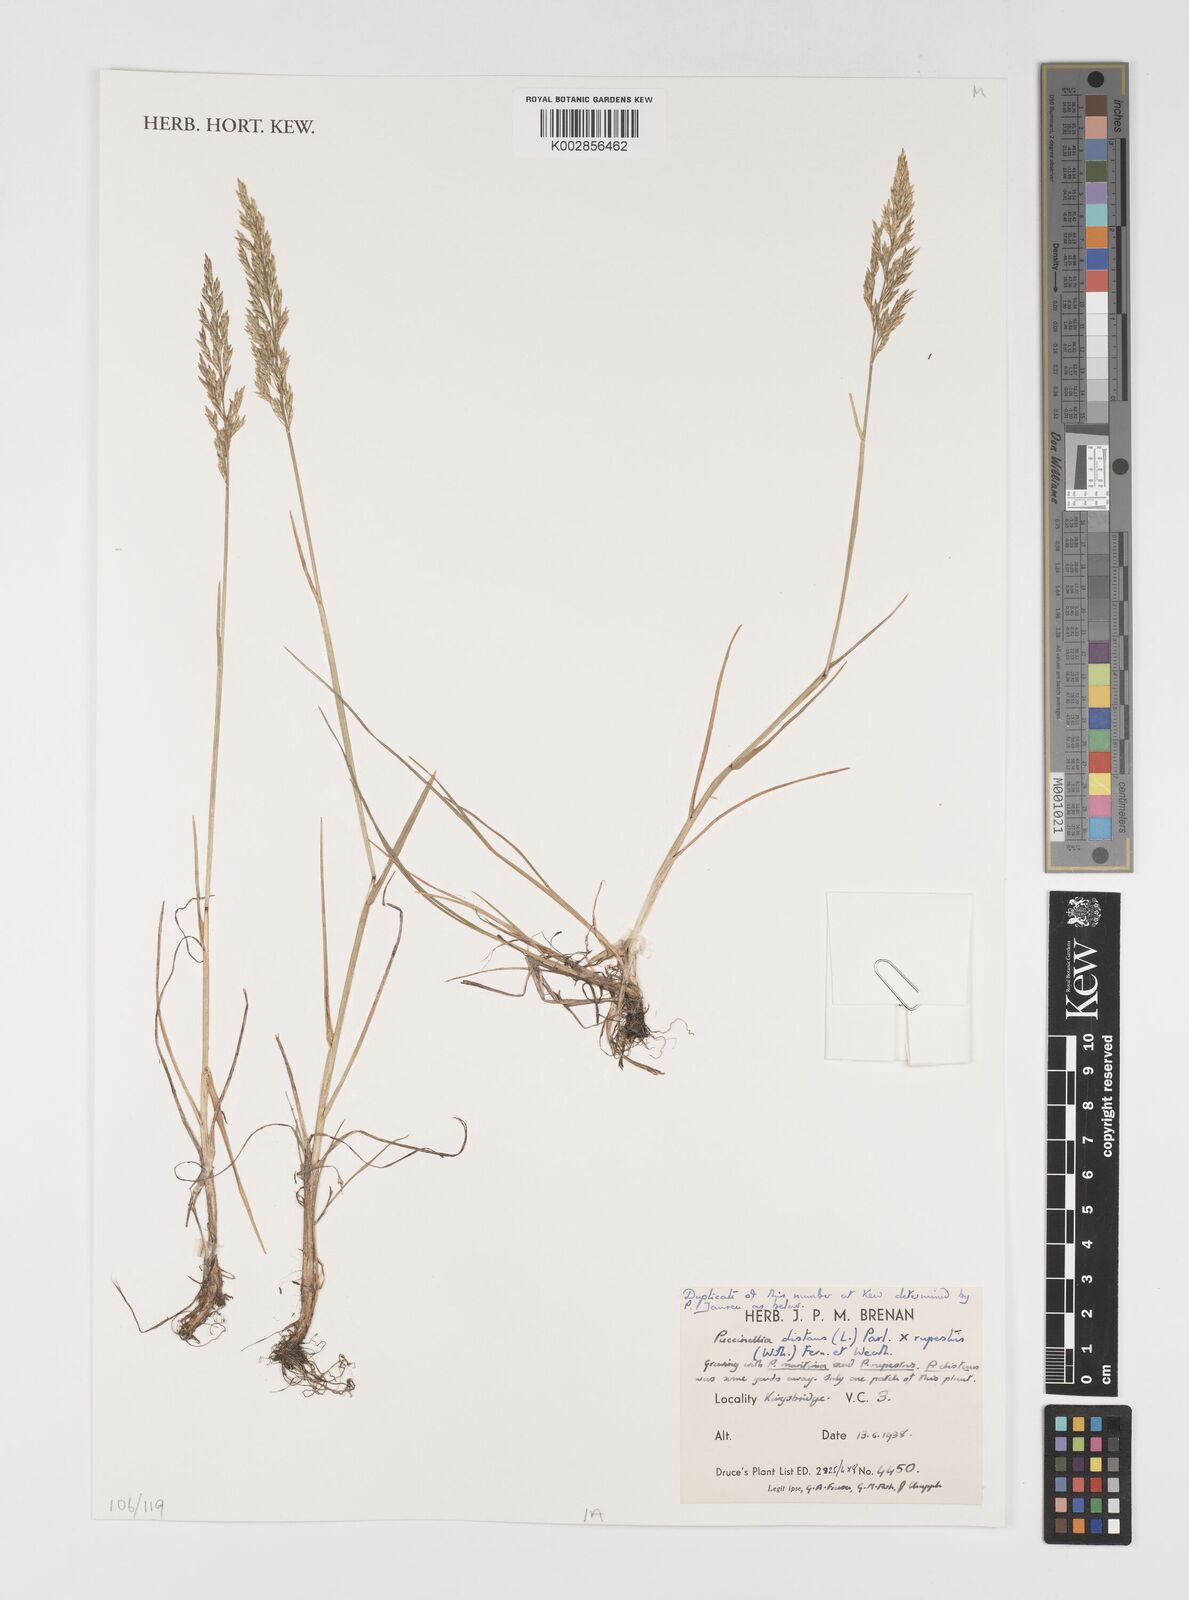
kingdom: Plantae
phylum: Tracheophyta
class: Liliopsida
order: Poales
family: Poaceae
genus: Puccinellia
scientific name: Puccinellia distans
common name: Weeping alkaligrass
